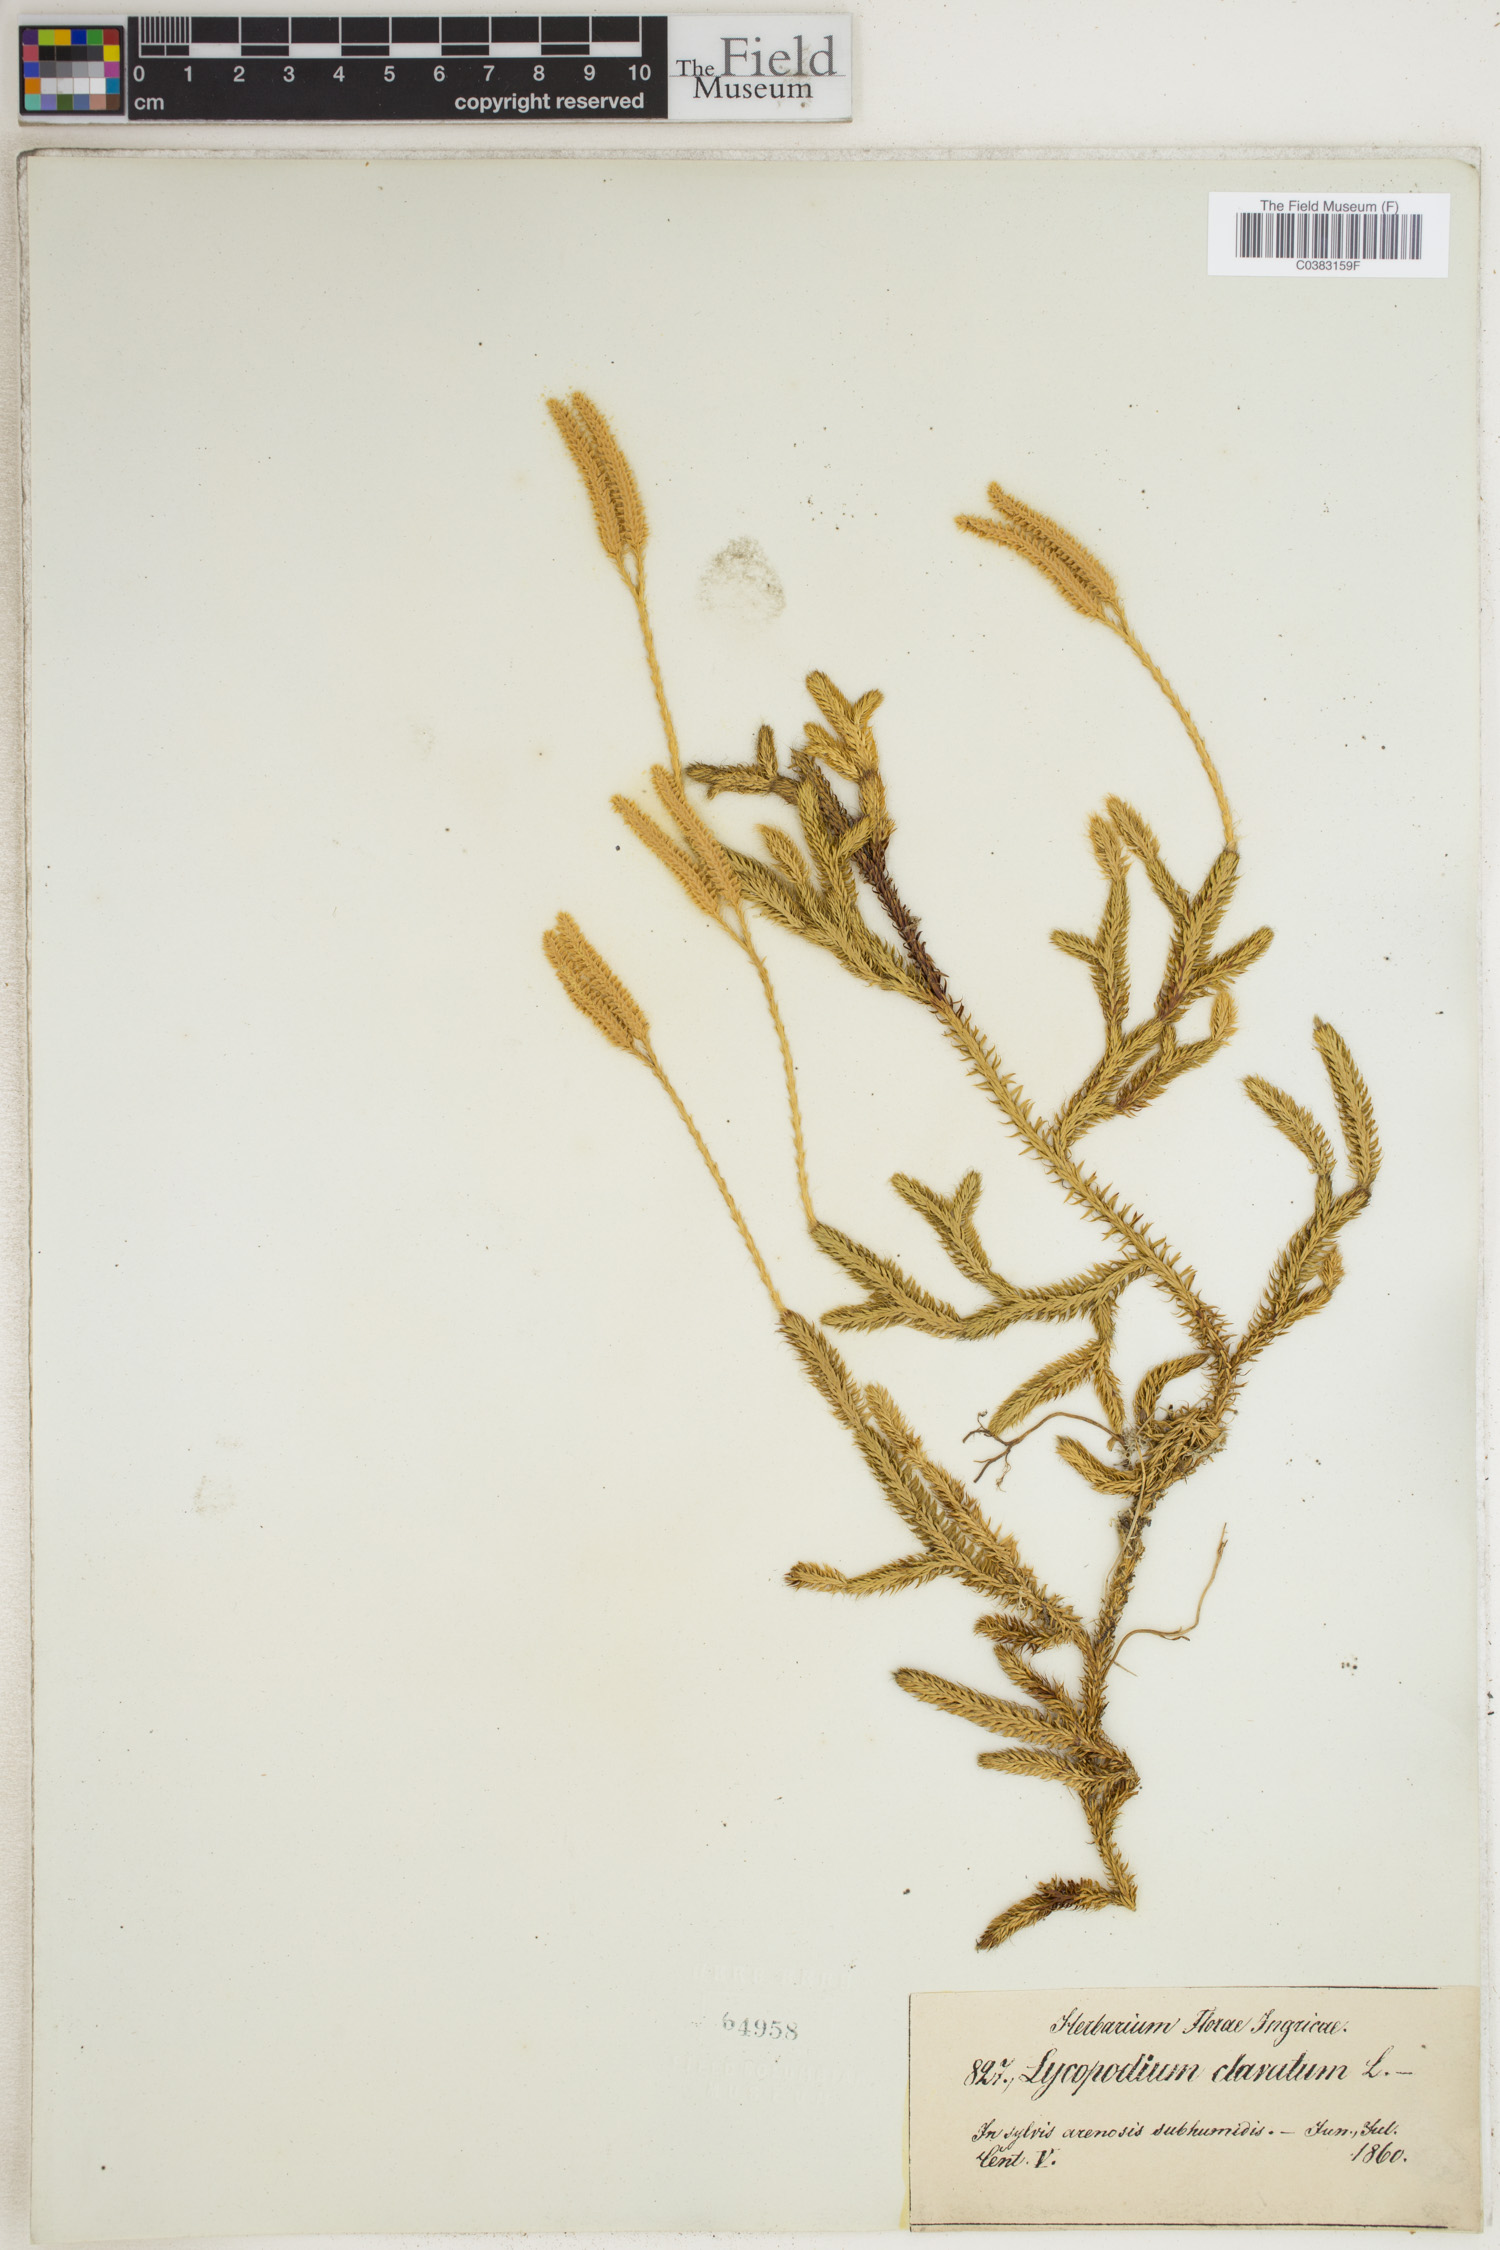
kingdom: Plantae
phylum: Tracheophyta
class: Lycopodiopsida
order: Lycopodiales
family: Lycopodiaceae
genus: Lycopodium
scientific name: Lycopodium clavatum
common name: Stag's-horn clubmoss
